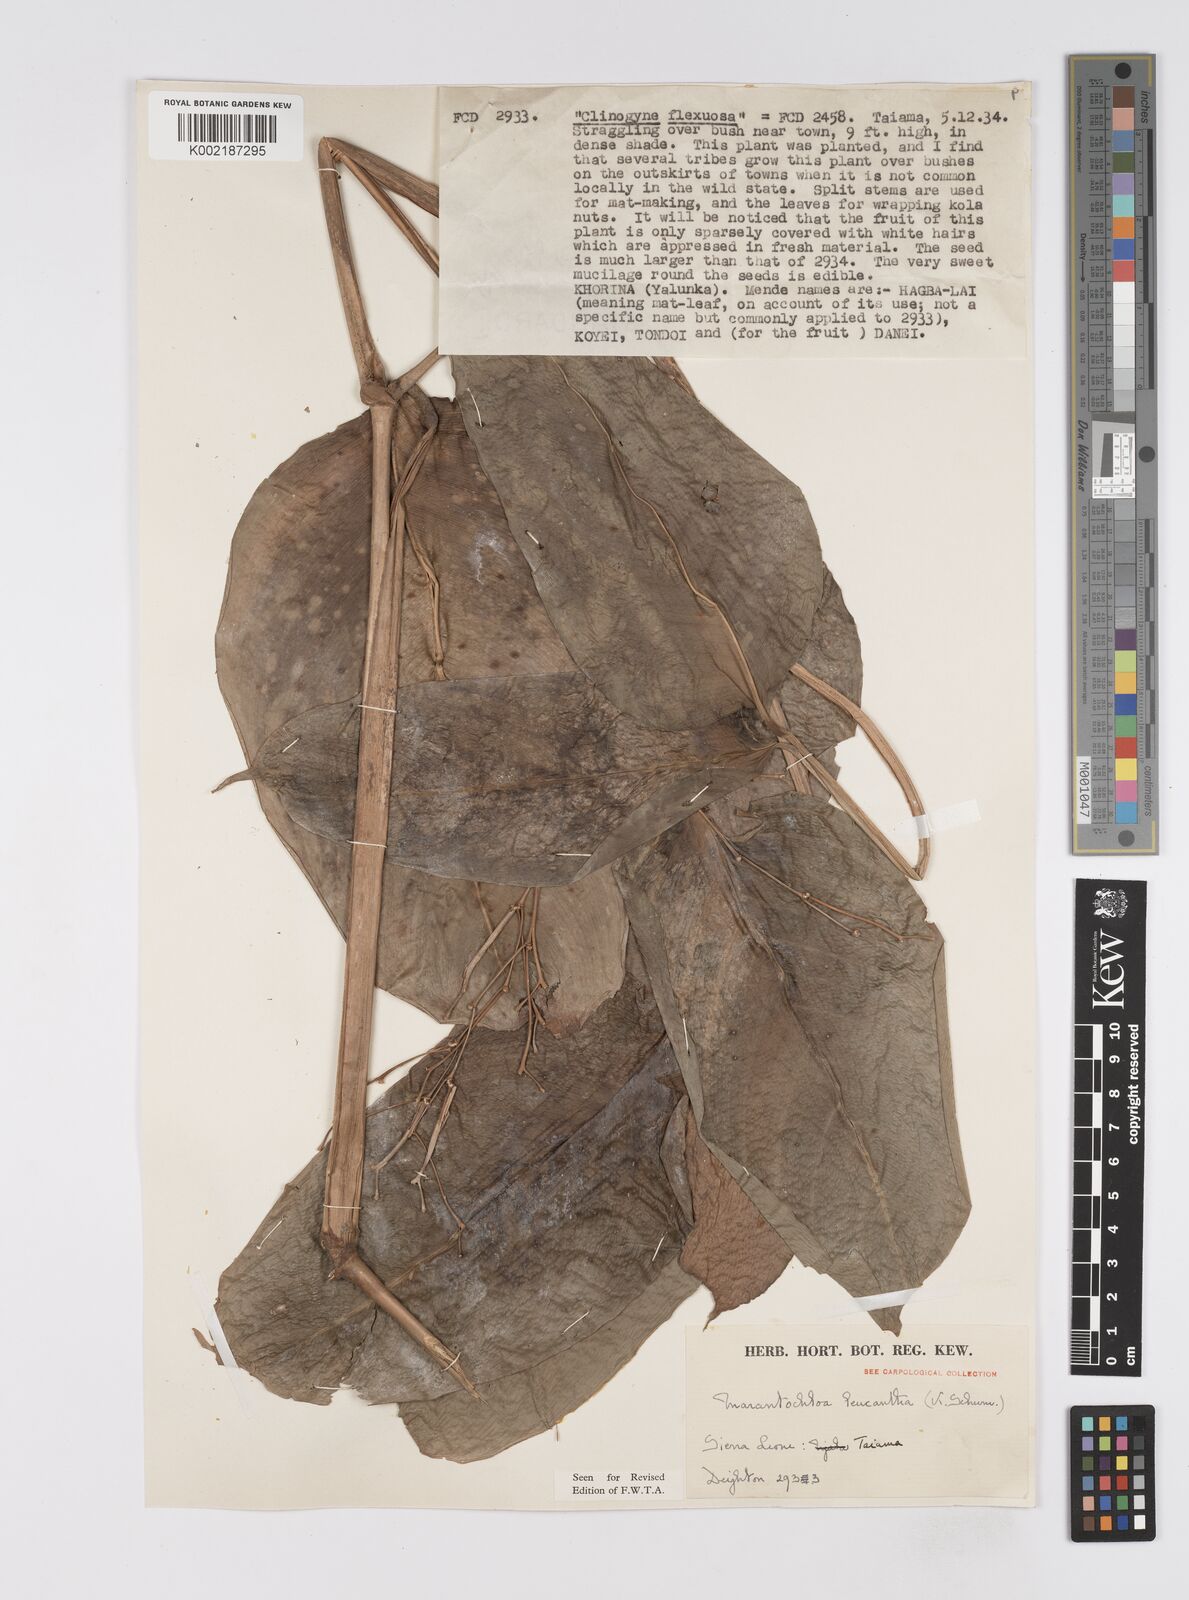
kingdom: Plantae
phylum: Tracheophyta
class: Liliopsida
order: Zingiberales
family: Marantaceae
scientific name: Marantaceae
